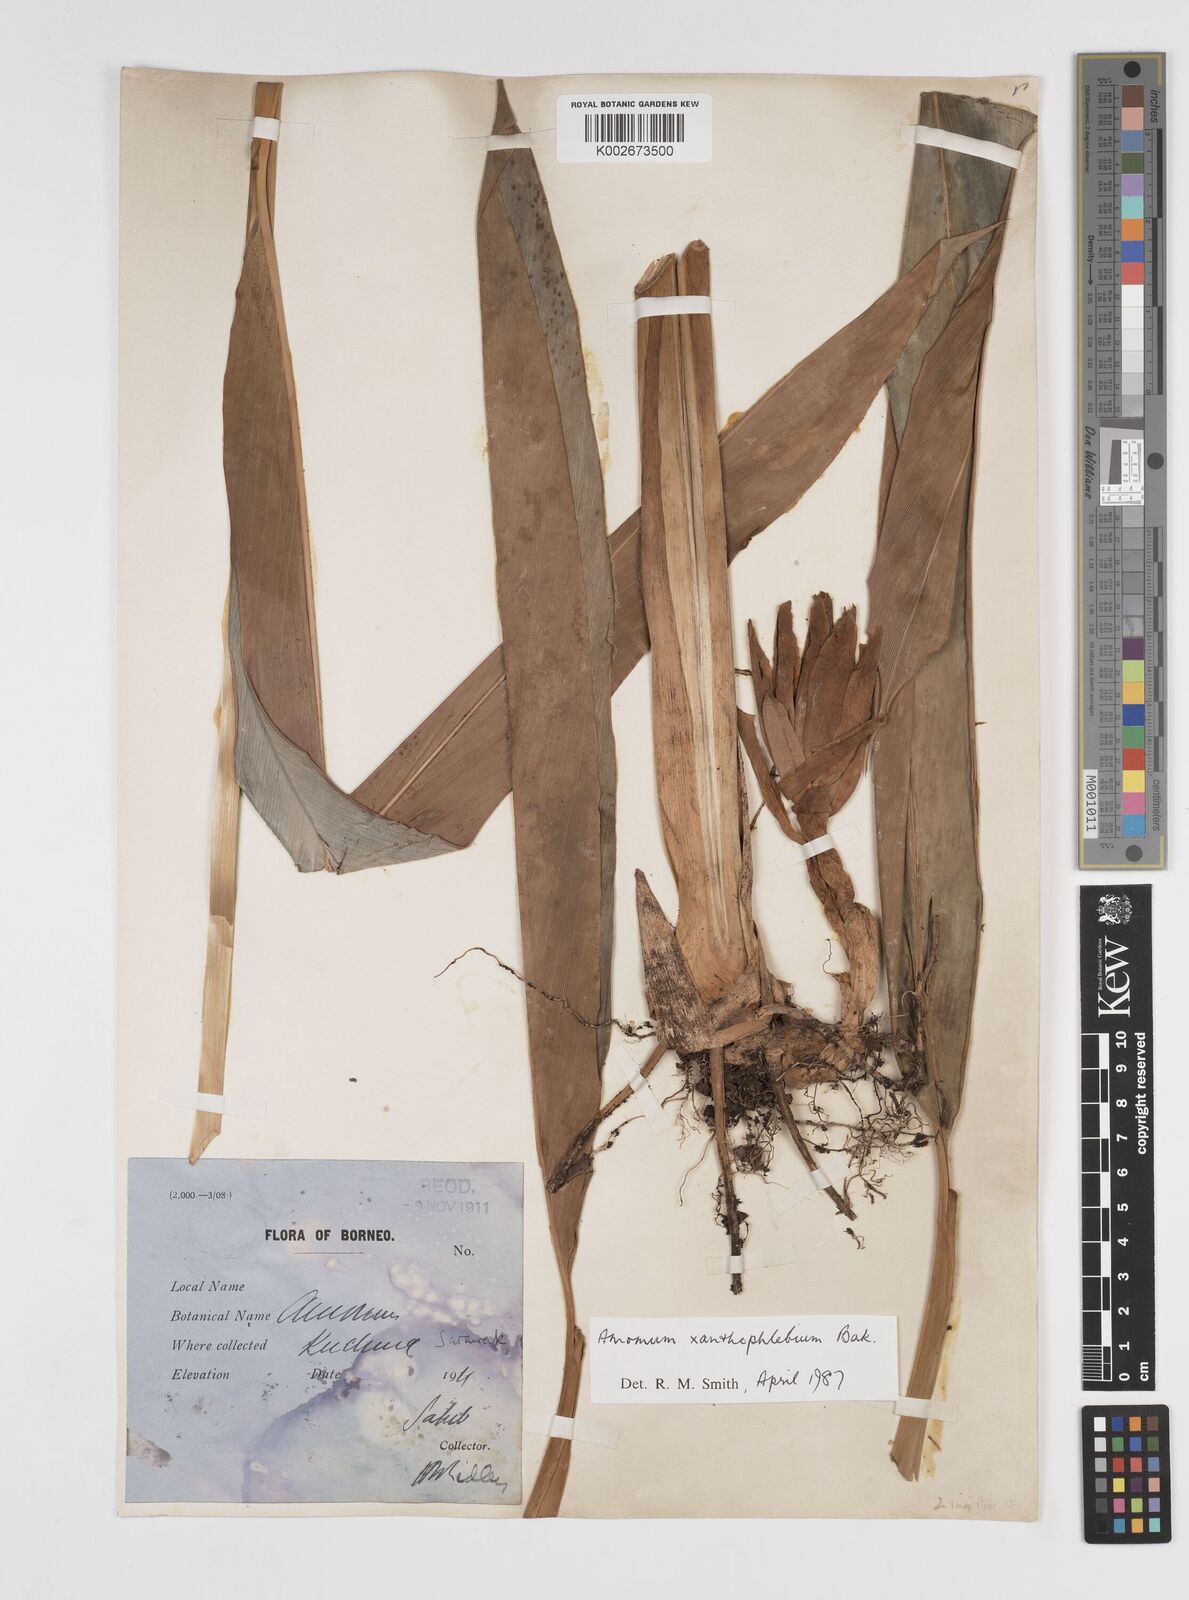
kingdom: Plantae
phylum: Tracheophyta
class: Liliopsida
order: Zingiberales
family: Zingiberaceae
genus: Conamomum
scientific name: Conamomum xanthophlebium
